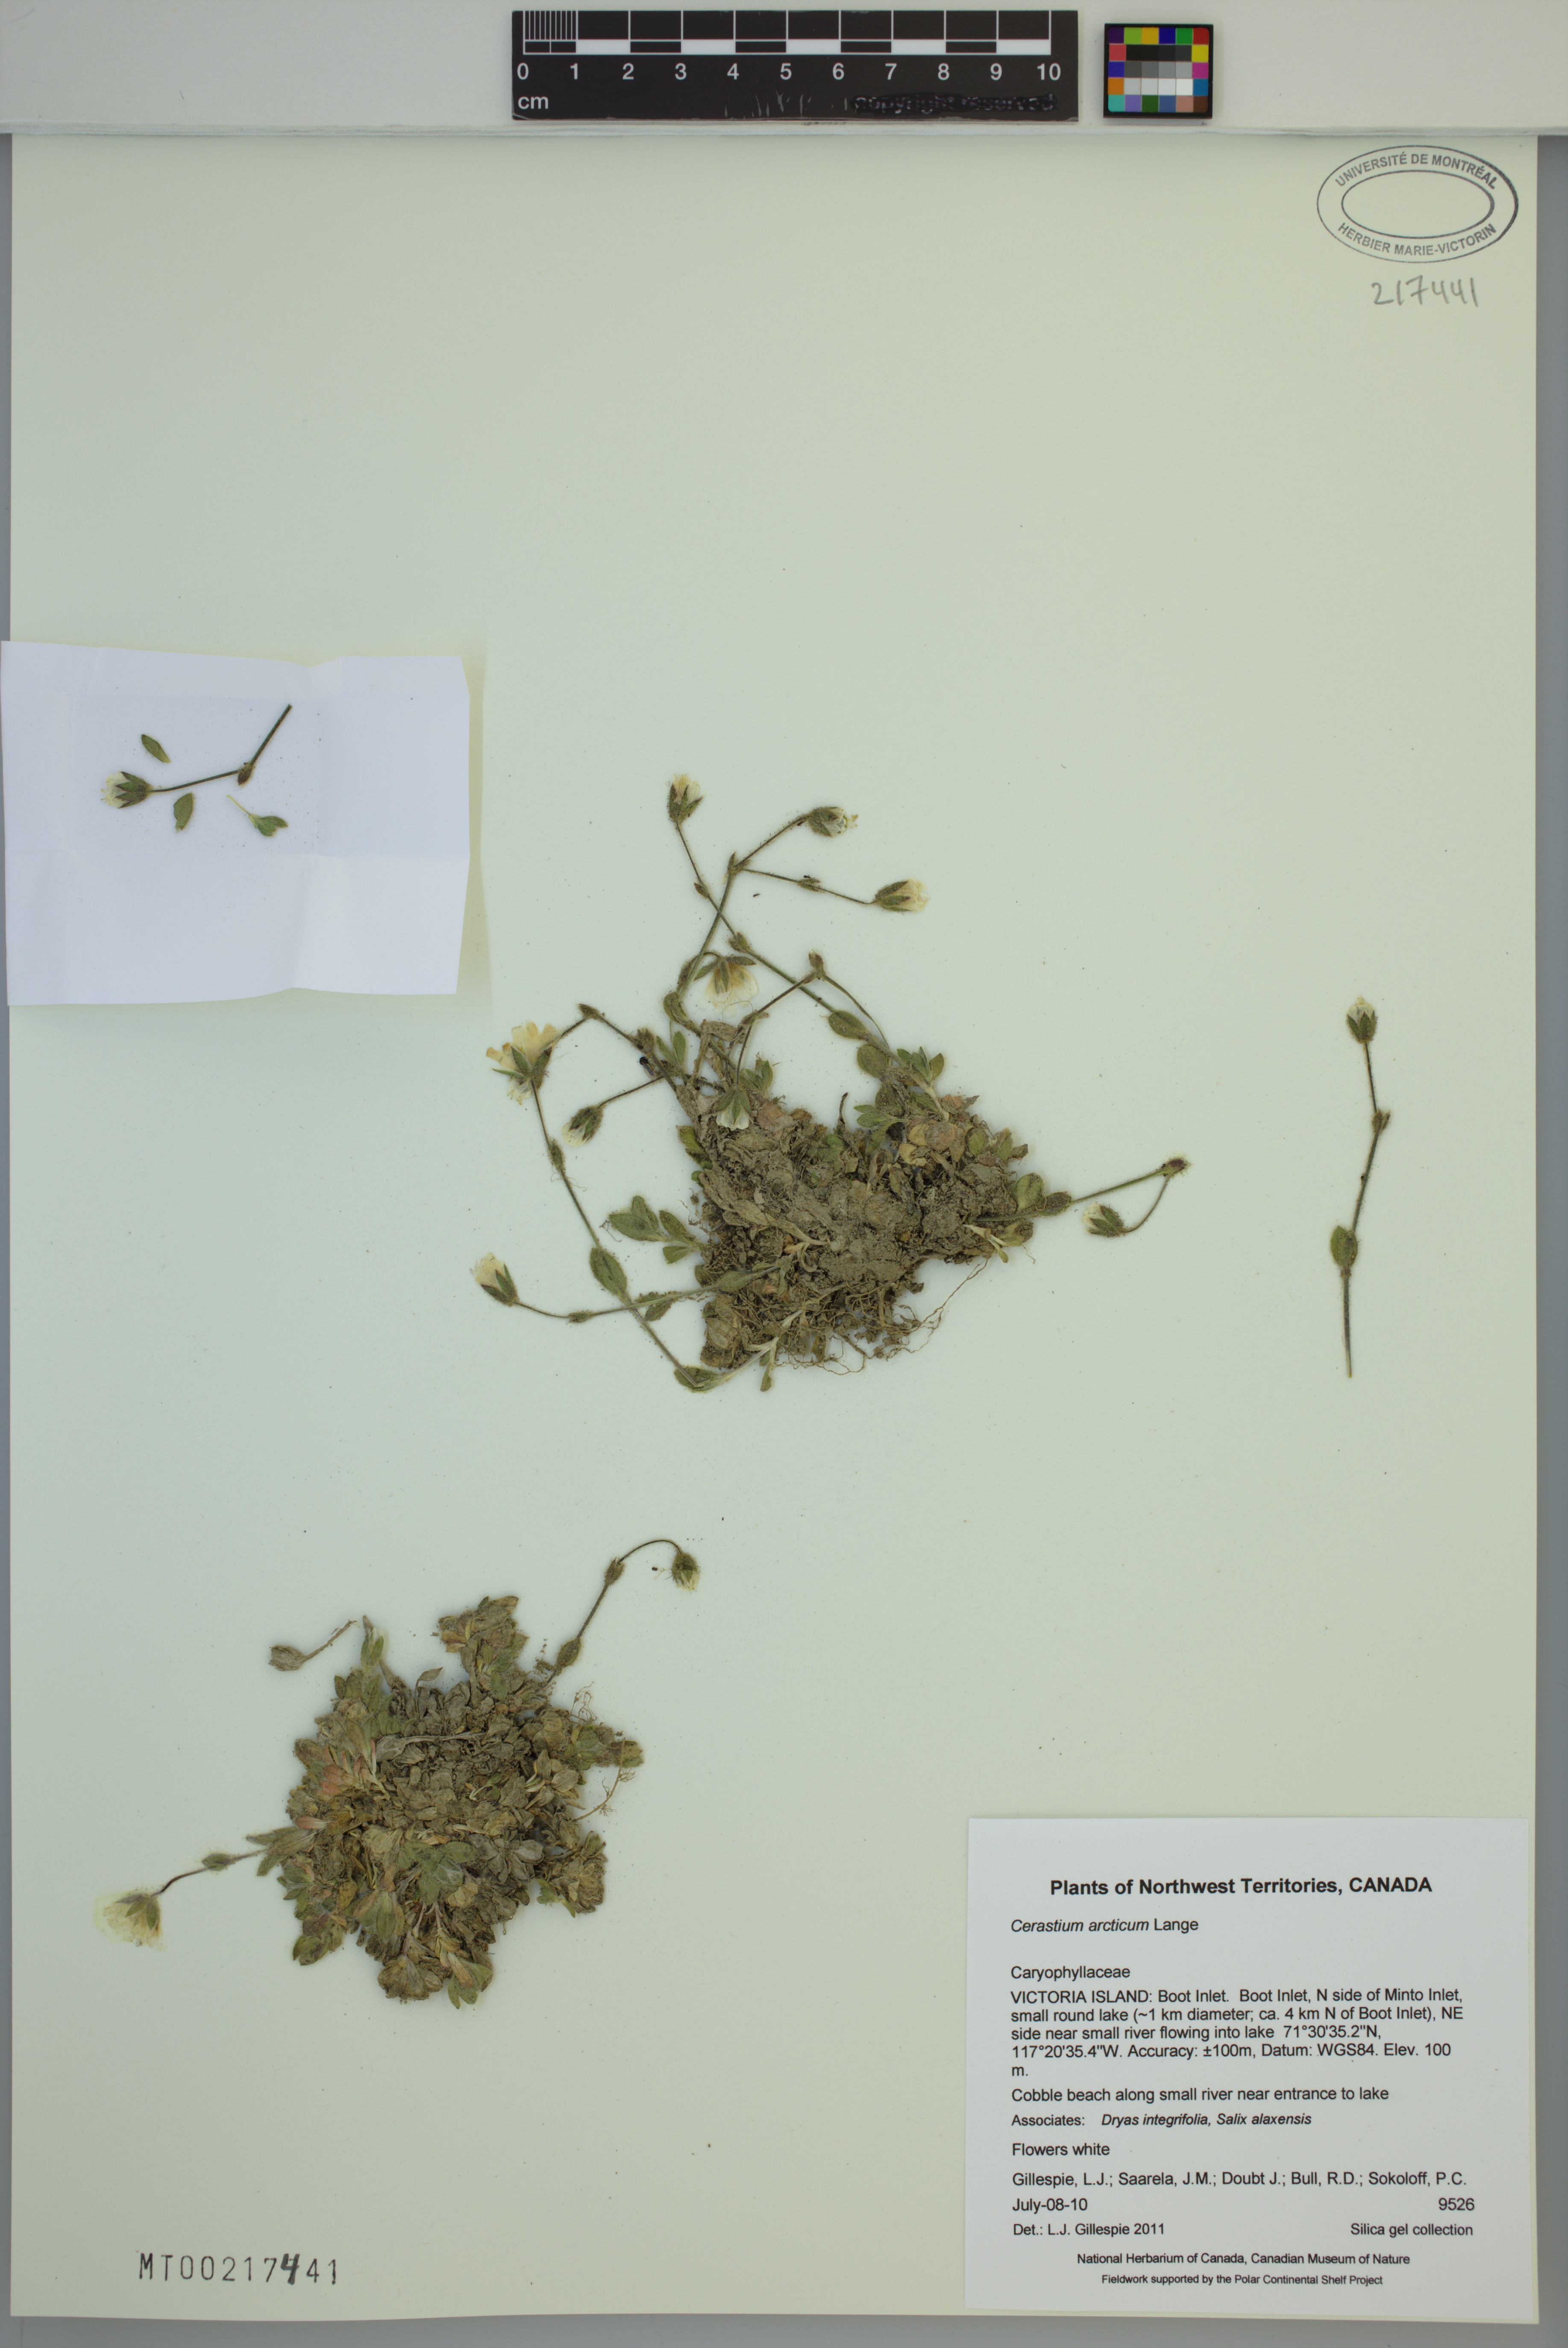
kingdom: Plantae
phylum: Tracheophyta
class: Magnoliopsida
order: Caryophyllales
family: Caryophyllaceae
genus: Cerastium
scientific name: Cerastium arcticum
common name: Arctic mouse-ear
